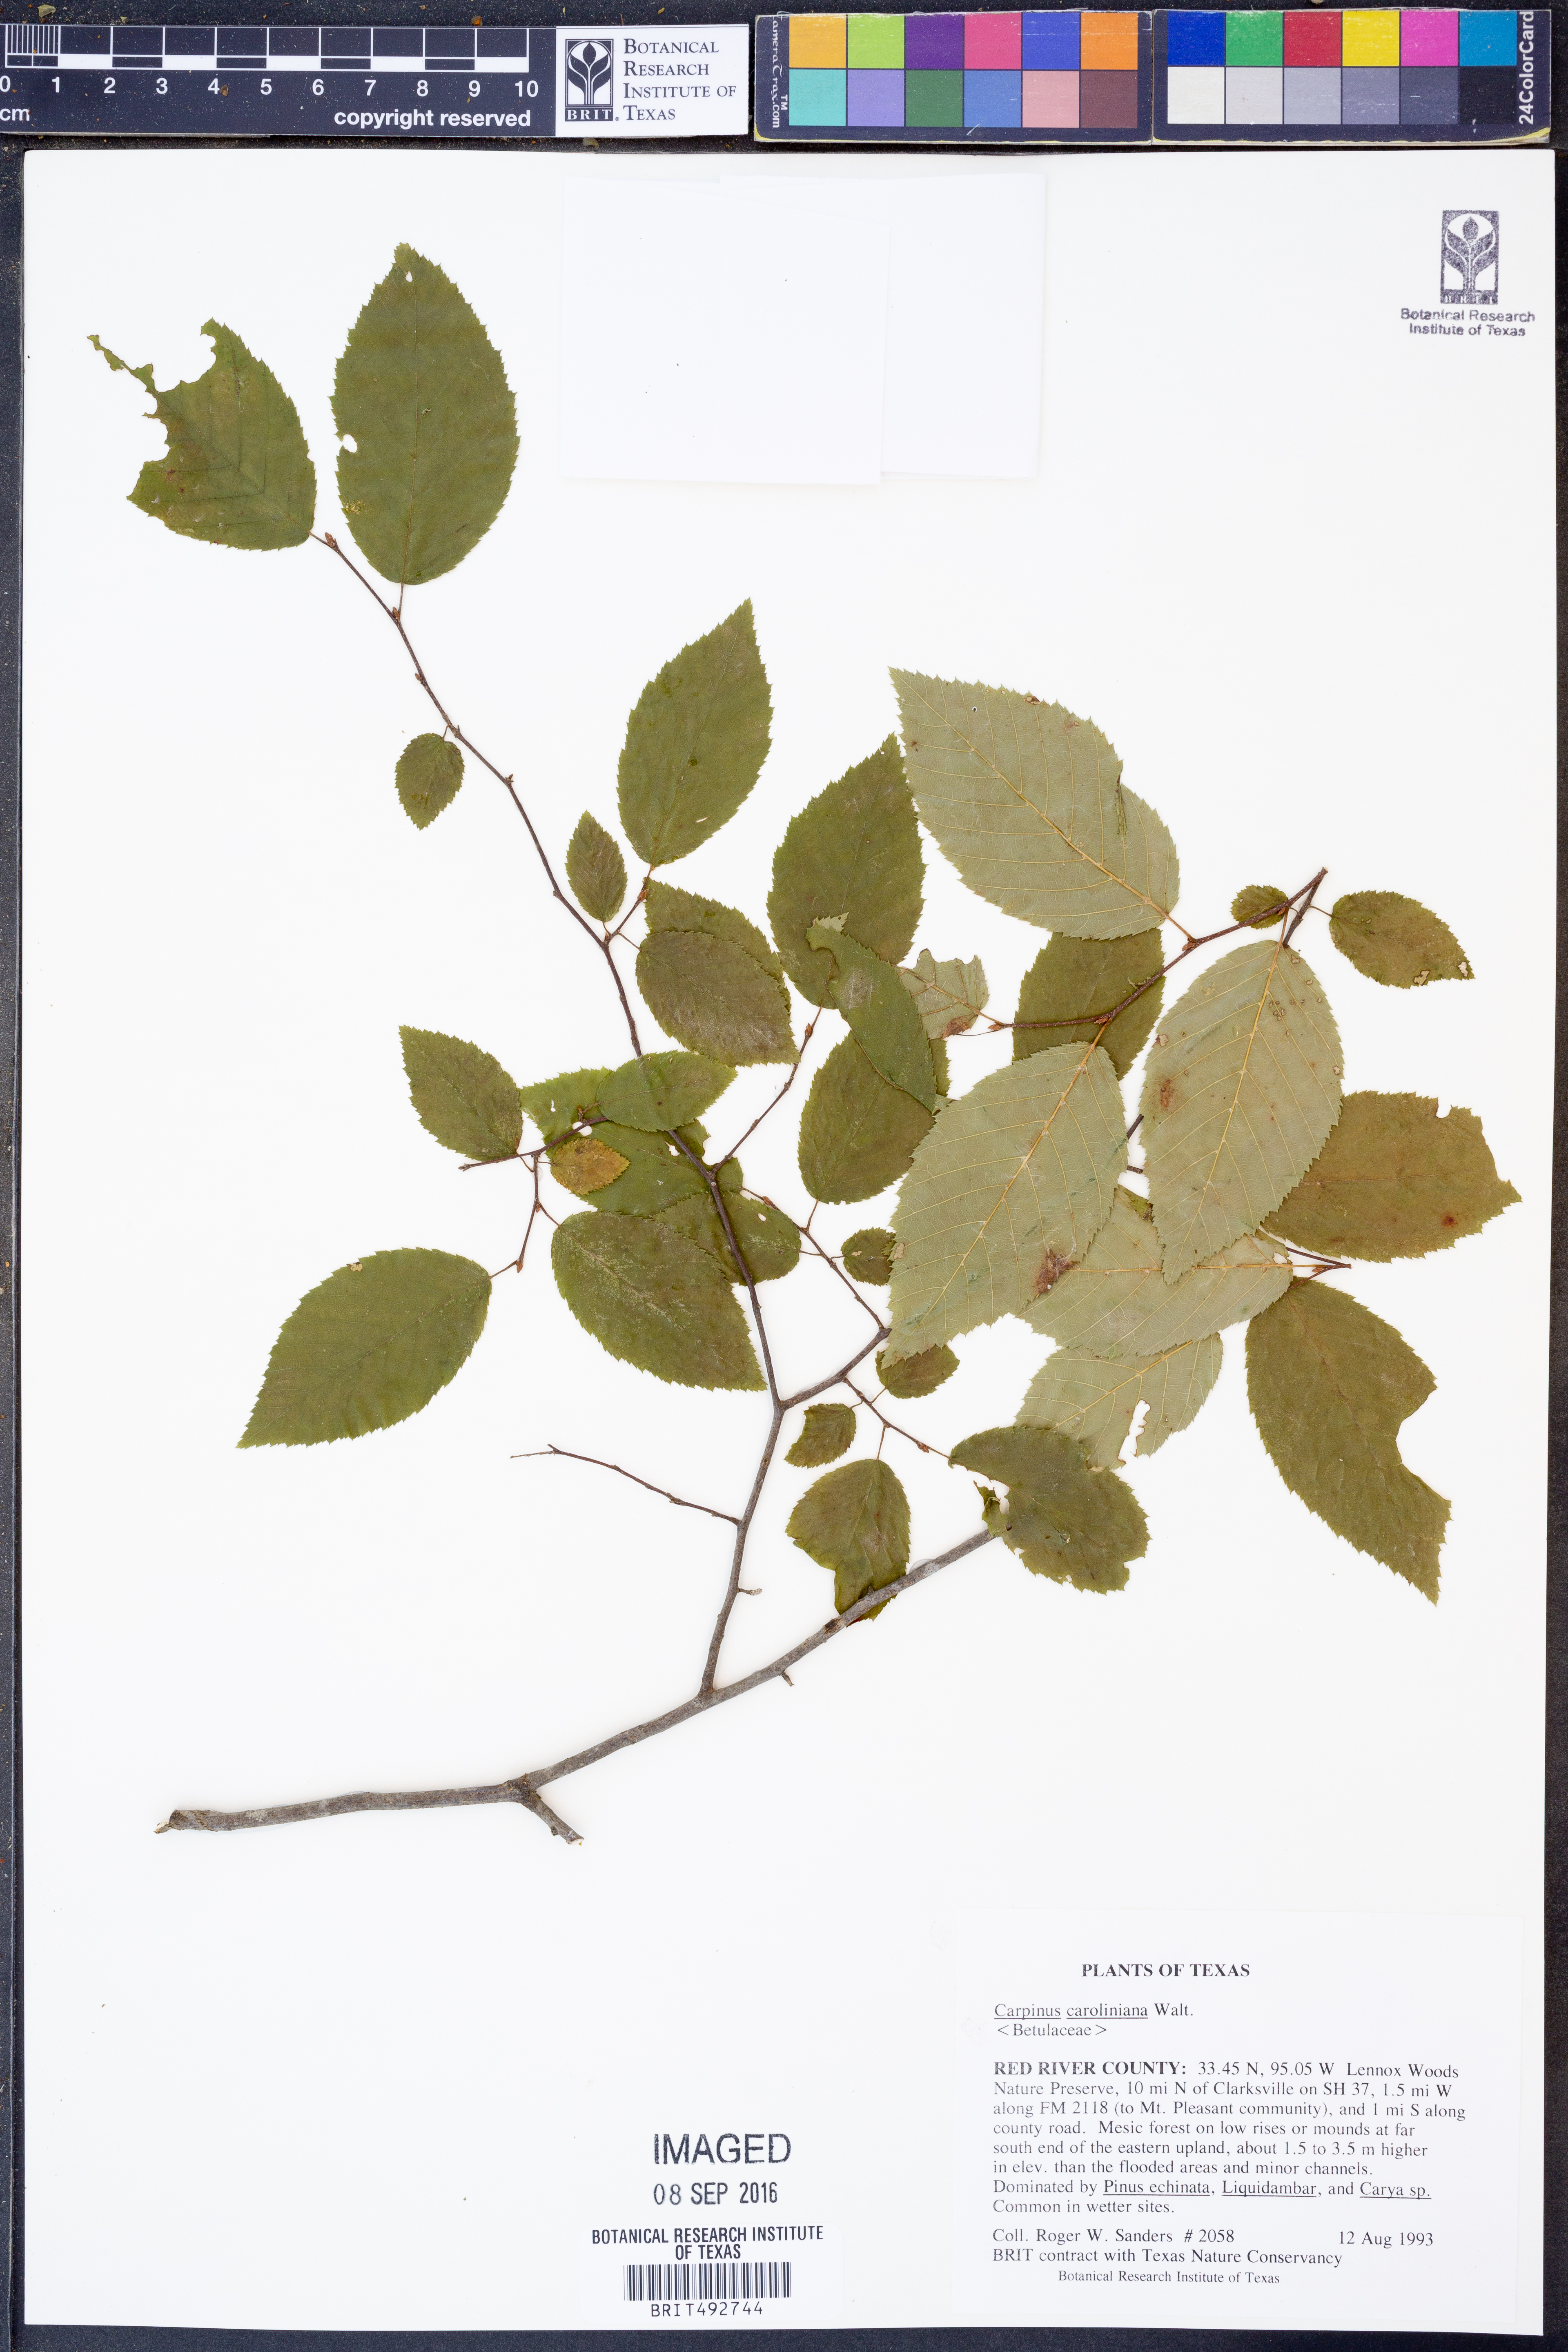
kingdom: Plantae
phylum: Tracheophyta
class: Magnoliopsida
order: Fagales
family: Betulaceae
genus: Carpinus
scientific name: Carpinus caroliniana
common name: American hornbeam
